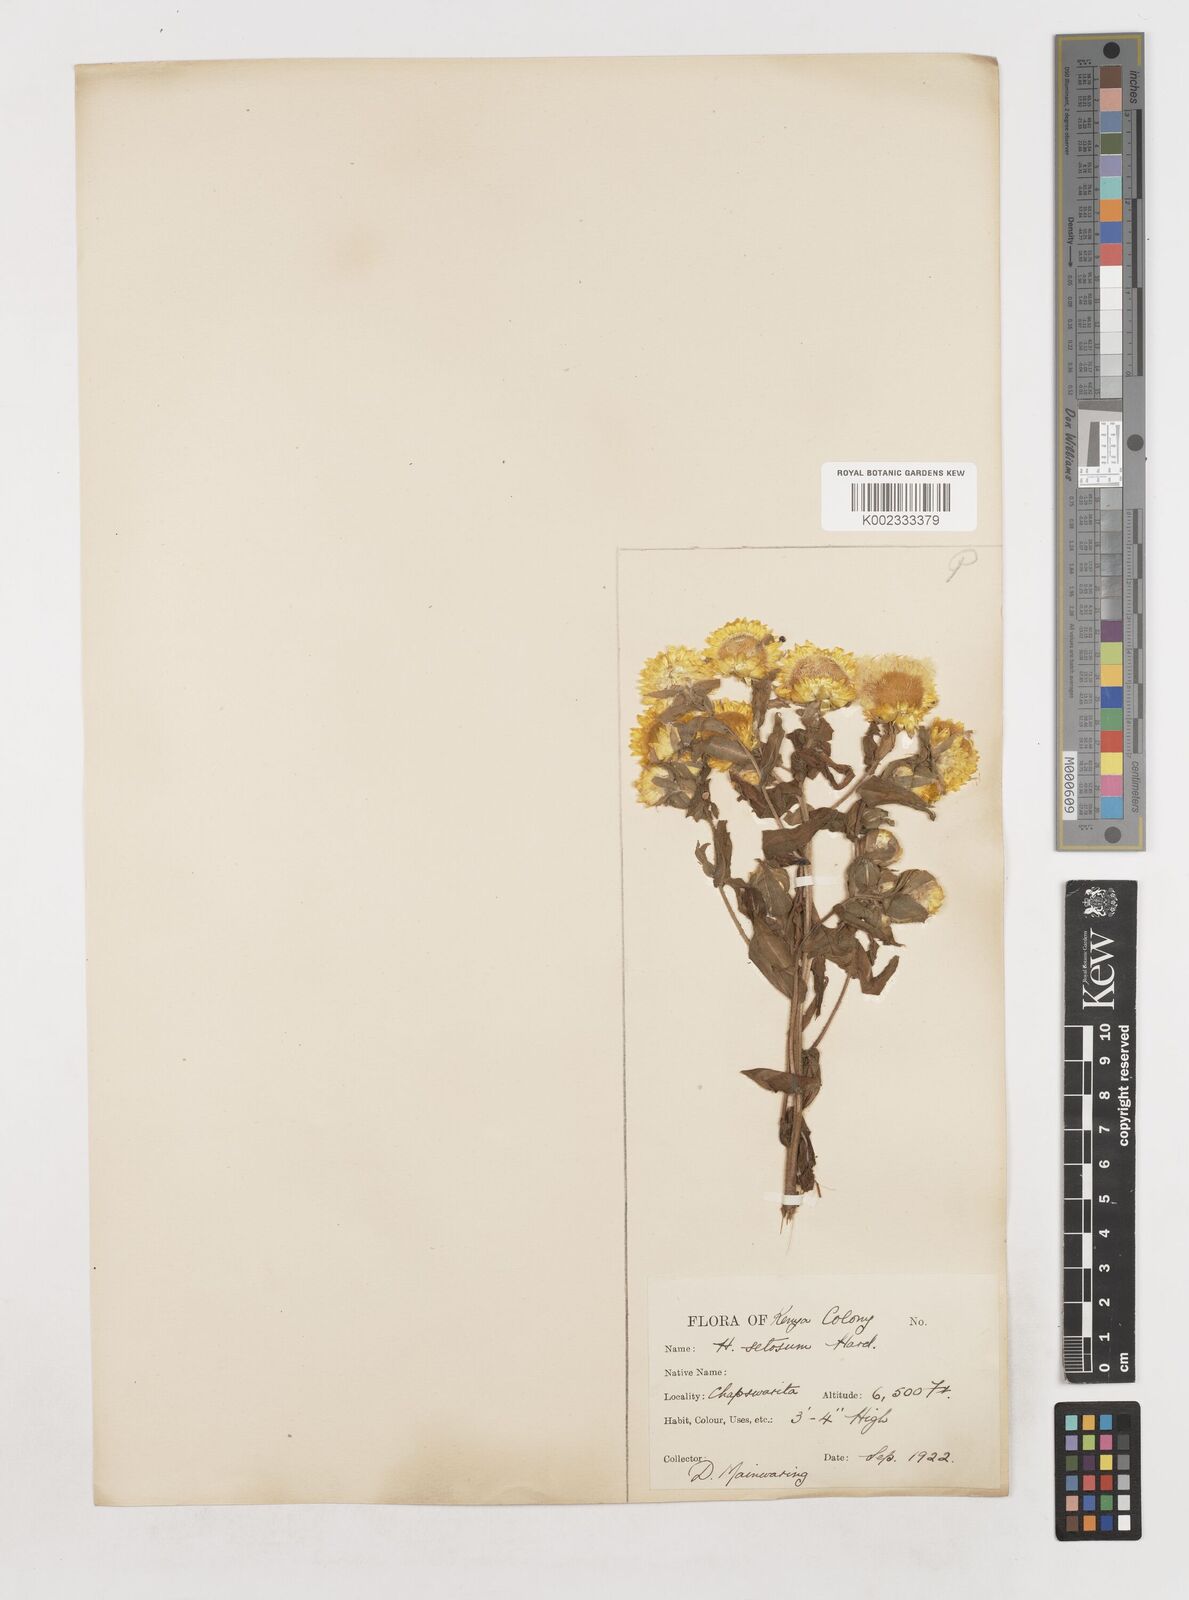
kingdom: Plantae
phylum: Tracheophyta
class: Magnoliopsida
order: Asterales
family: Asteraceae
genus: Helichrysum
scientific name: Helichrysum setosum
